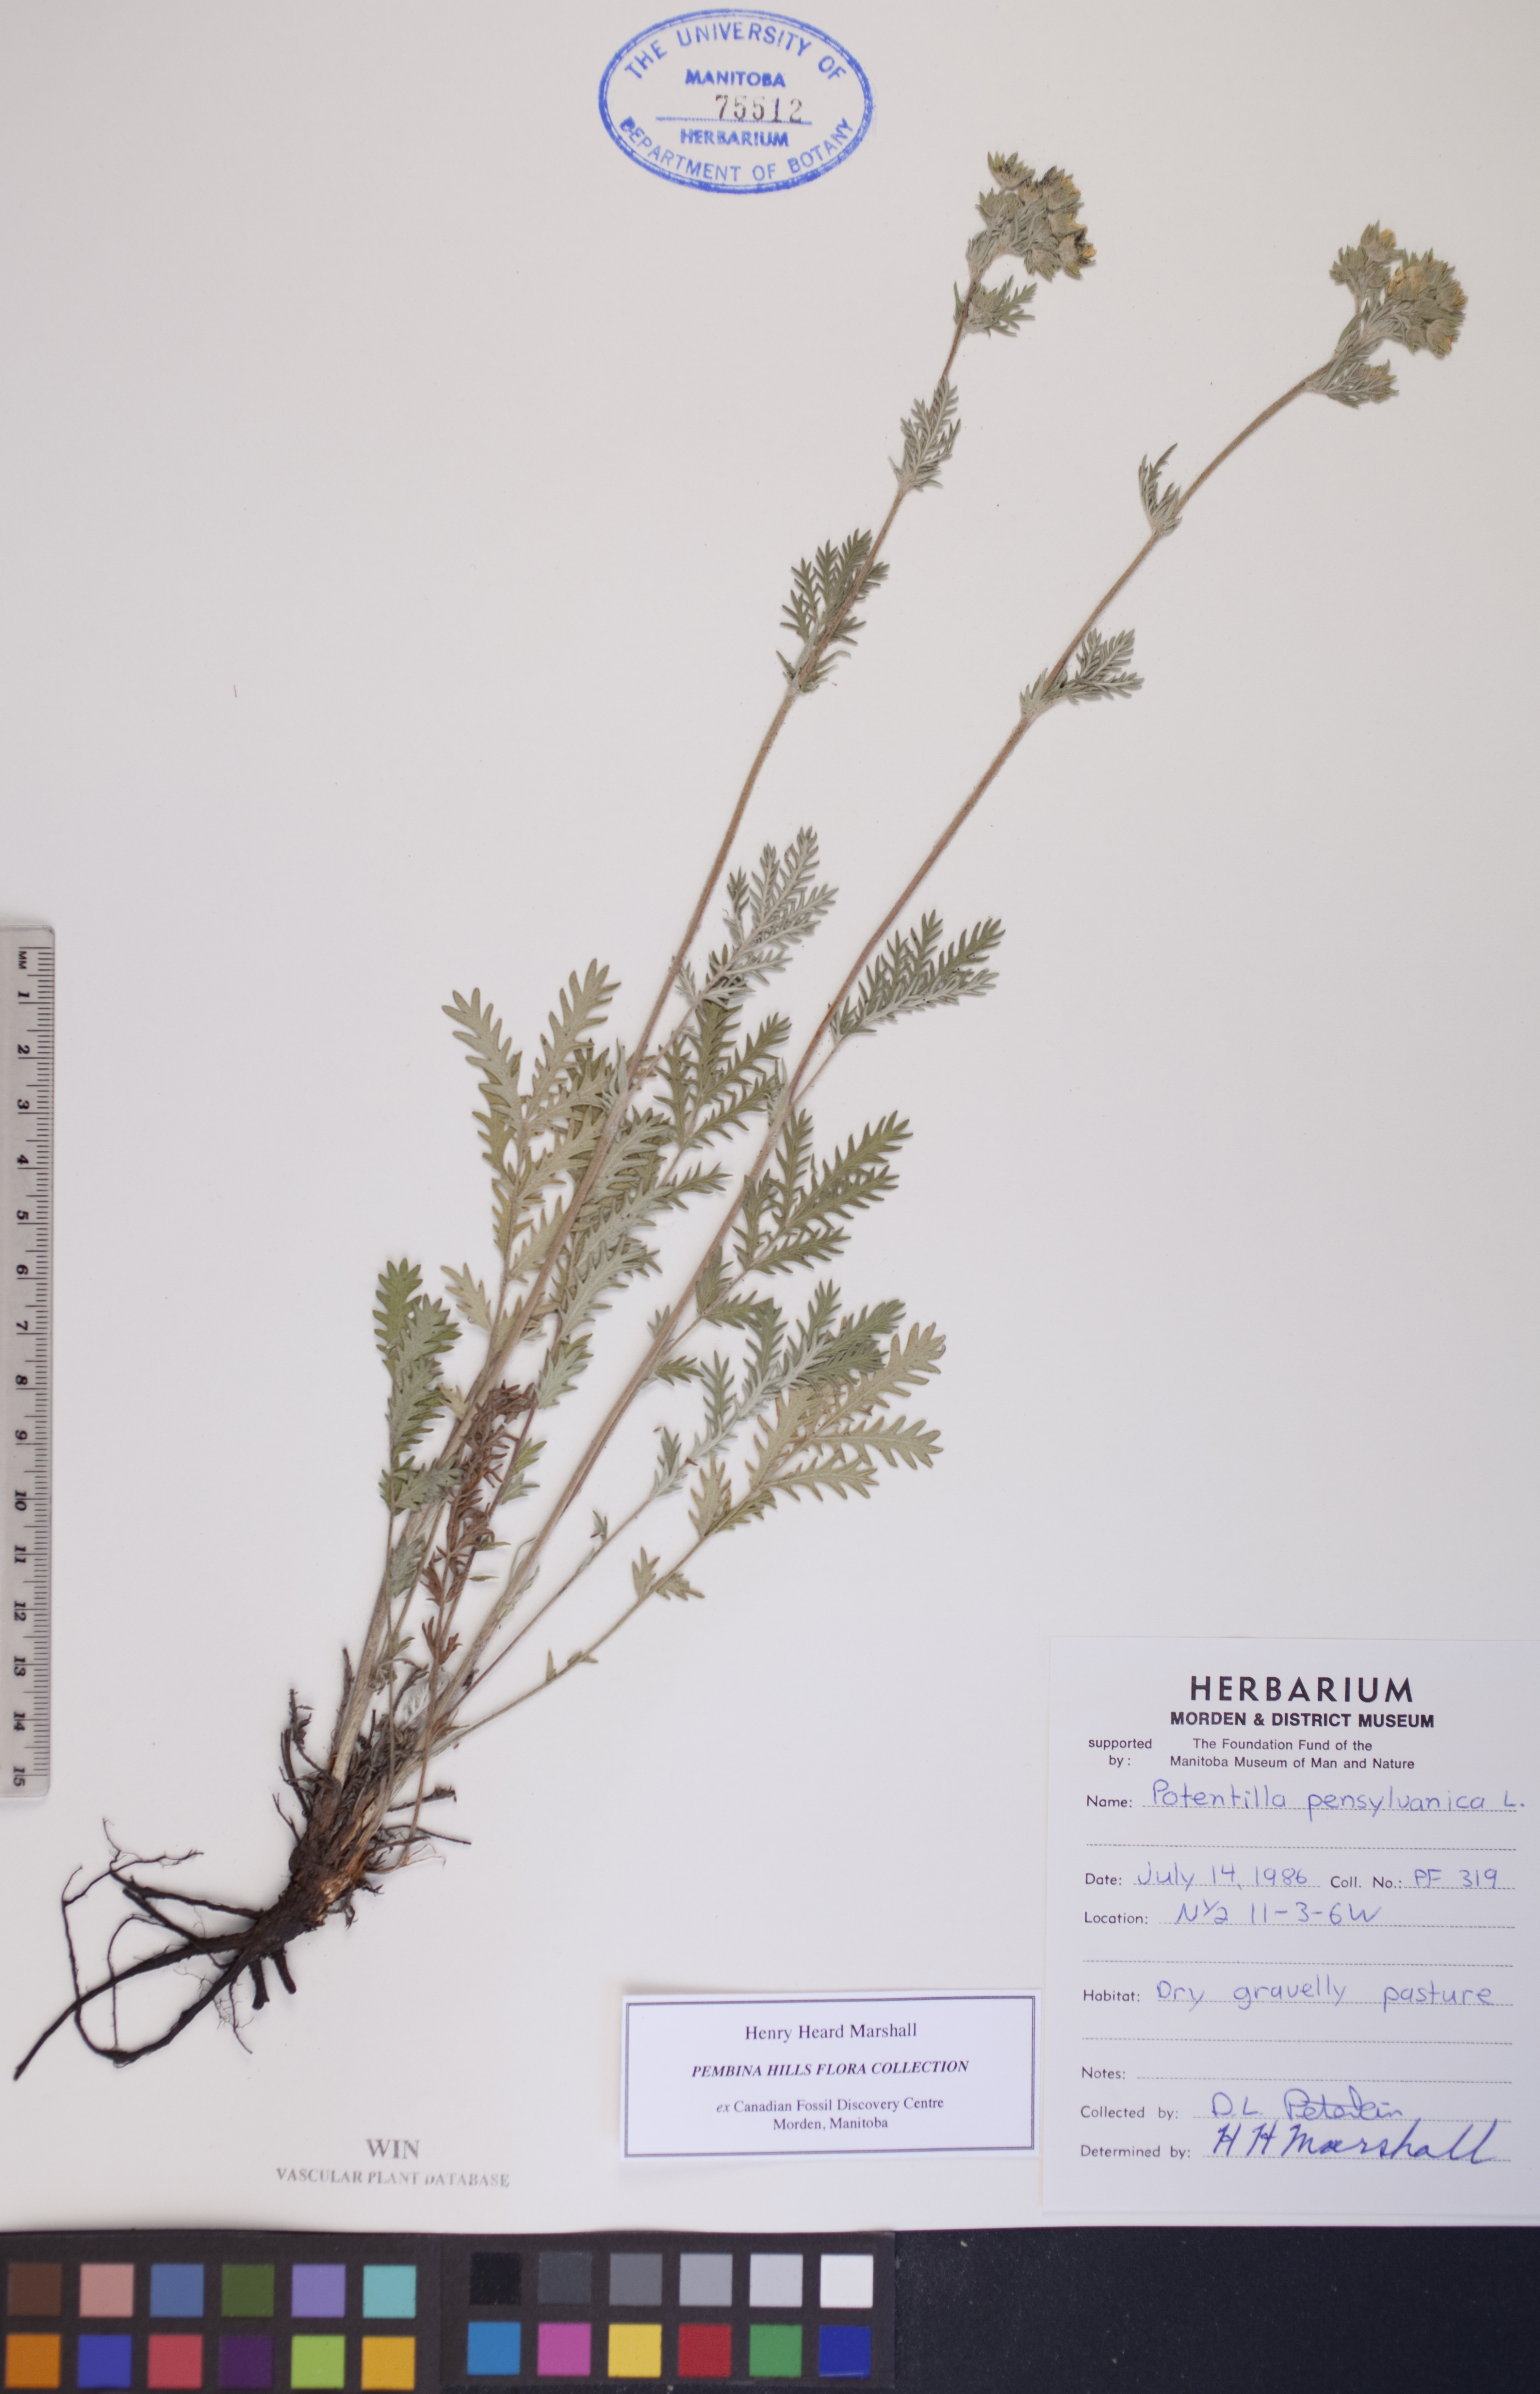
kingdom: Plantae
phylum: Tracheophyta
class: Magnoliopsida
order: Rosales
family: Rosaceae
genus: Potentilla
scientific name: Potentilla pensylvanica
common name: Pennsylvania cinquefoil
